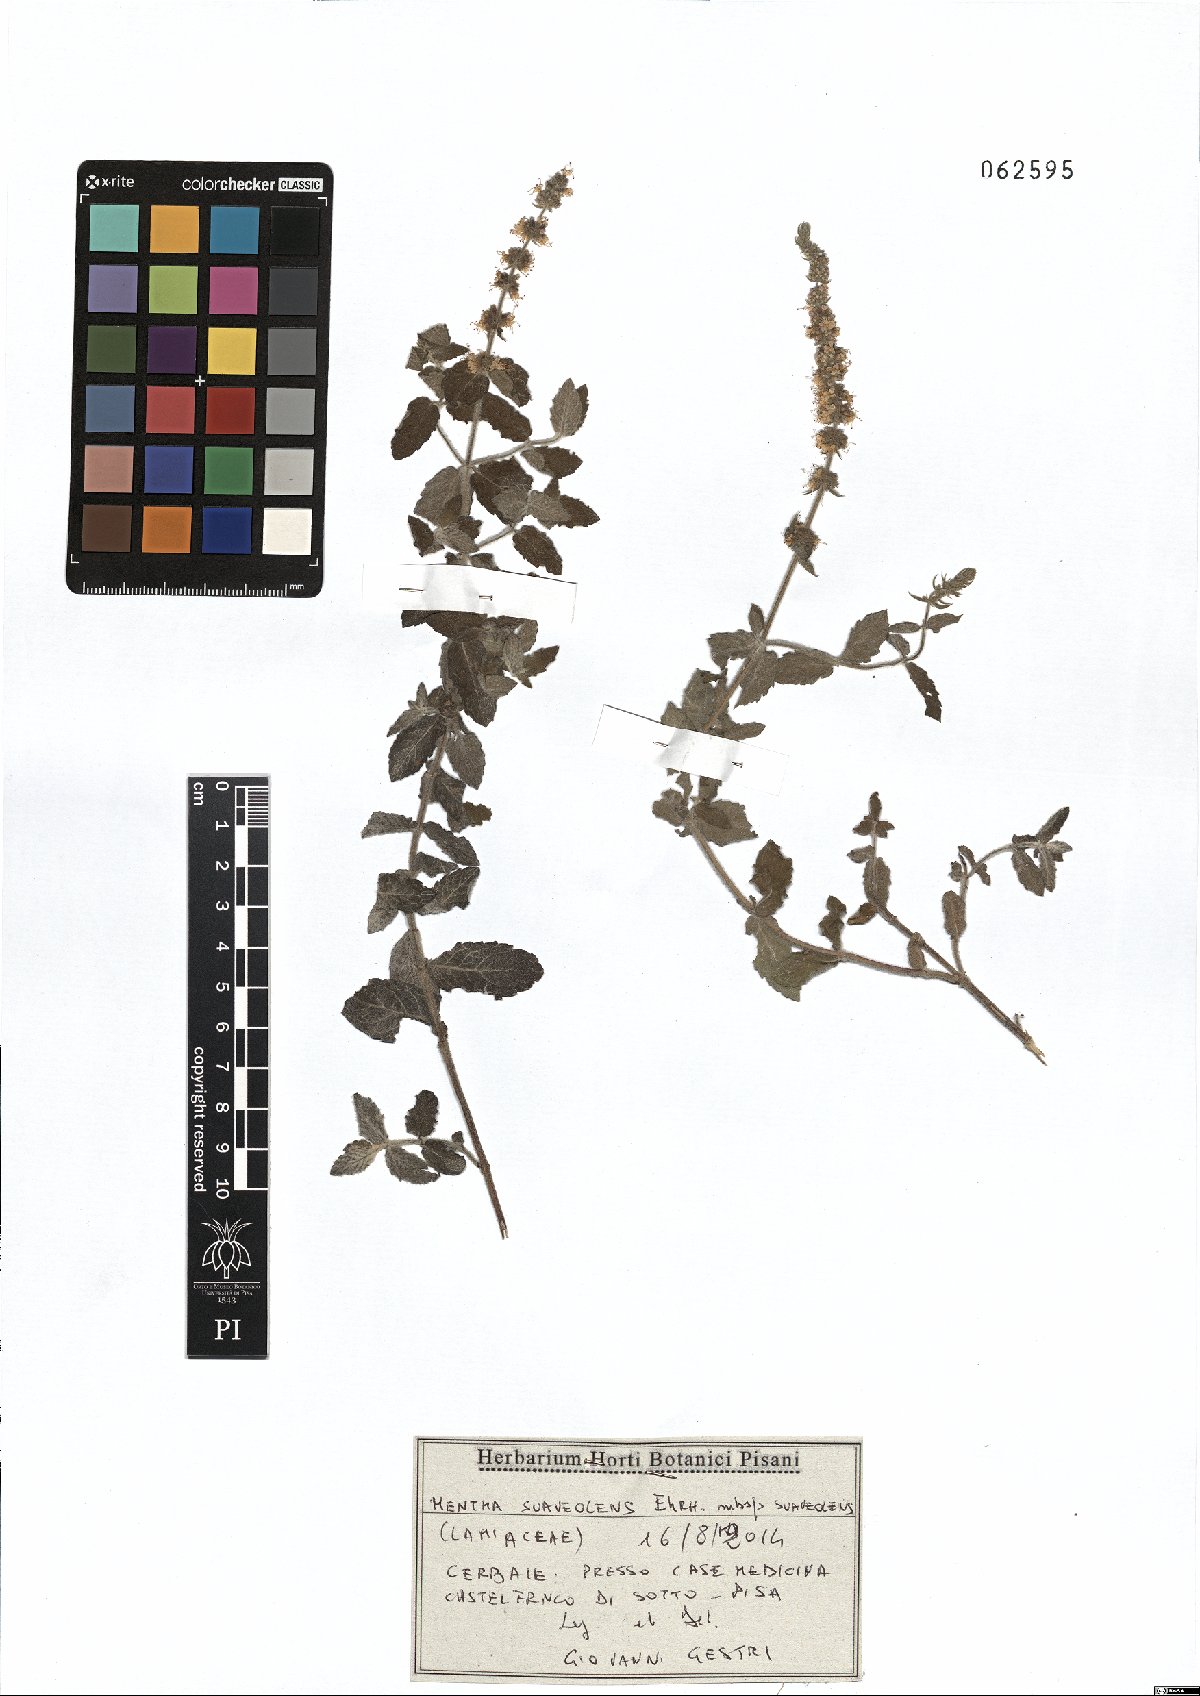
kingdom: Plantae
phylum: Tracheophyta
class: Magnoliopsida
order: Lamiales
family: Lamiaceae
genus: Mentha
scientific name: Mentha suaveolens
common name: Apple mint
